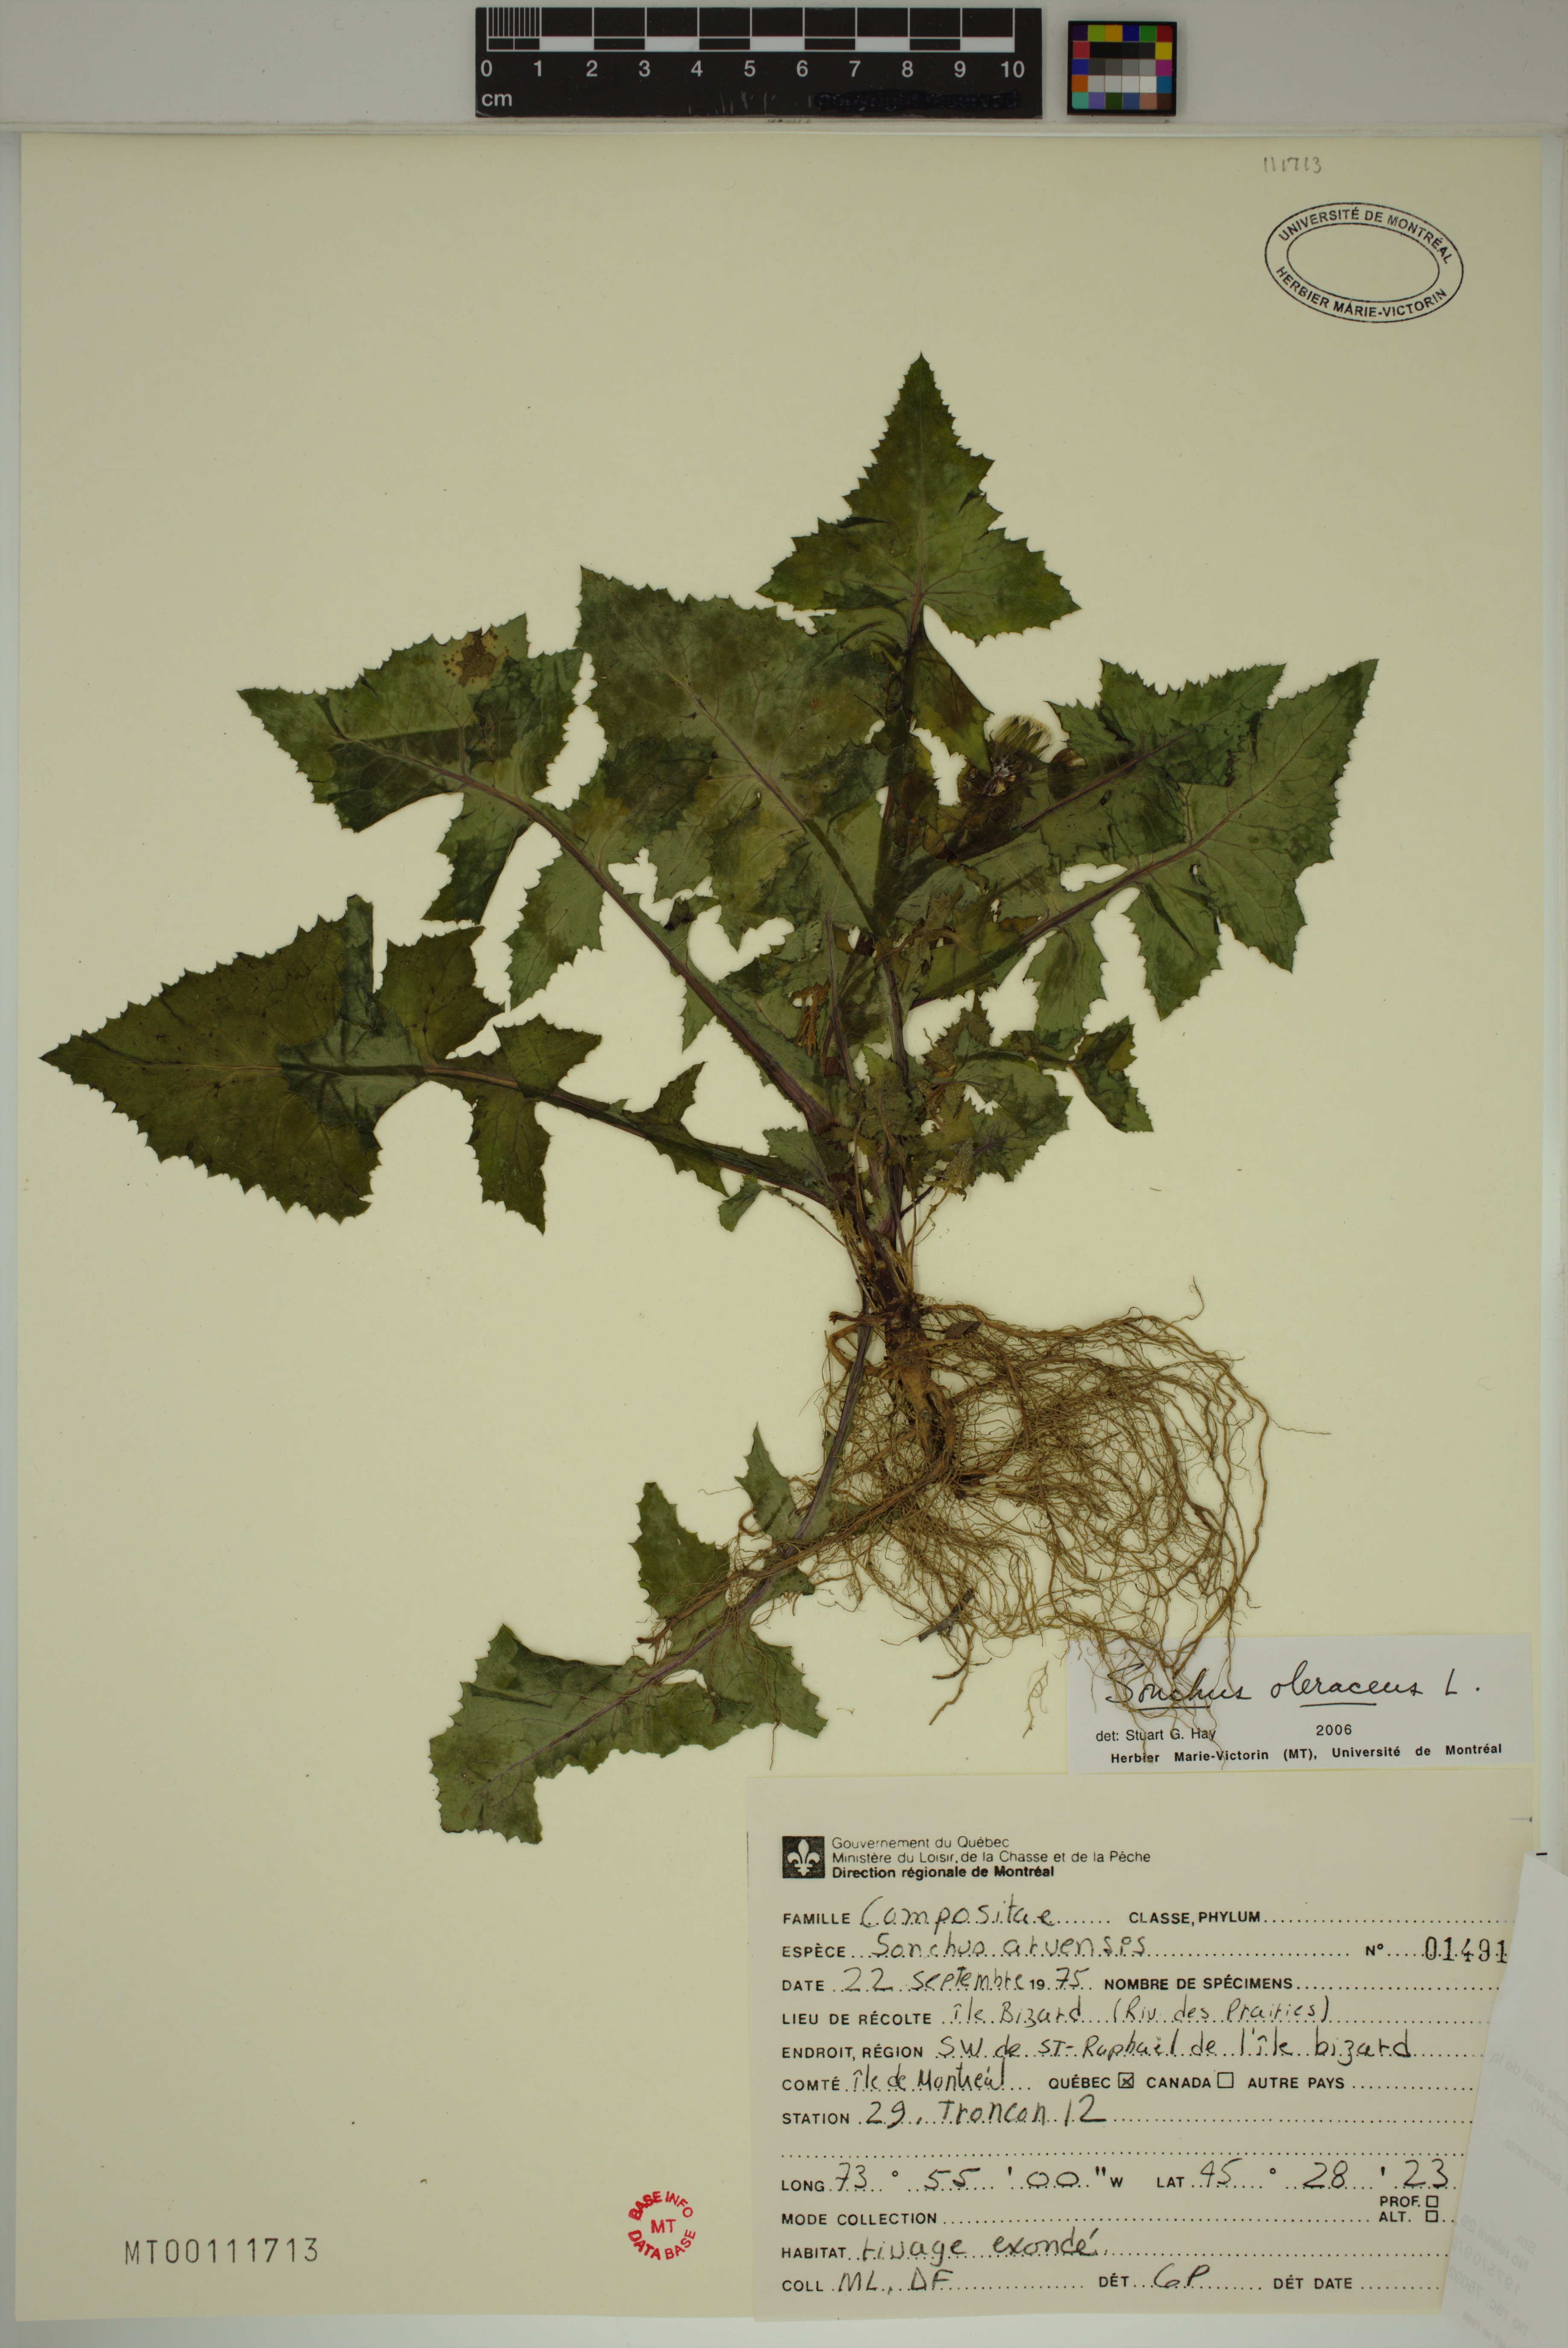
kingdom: Plantae
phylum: Tracheophyta
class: Magnoliopsida
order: Asterales
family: Asteraceae
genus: Sonchus
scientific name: Sonchus oleraceus
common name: Common sowthistle
